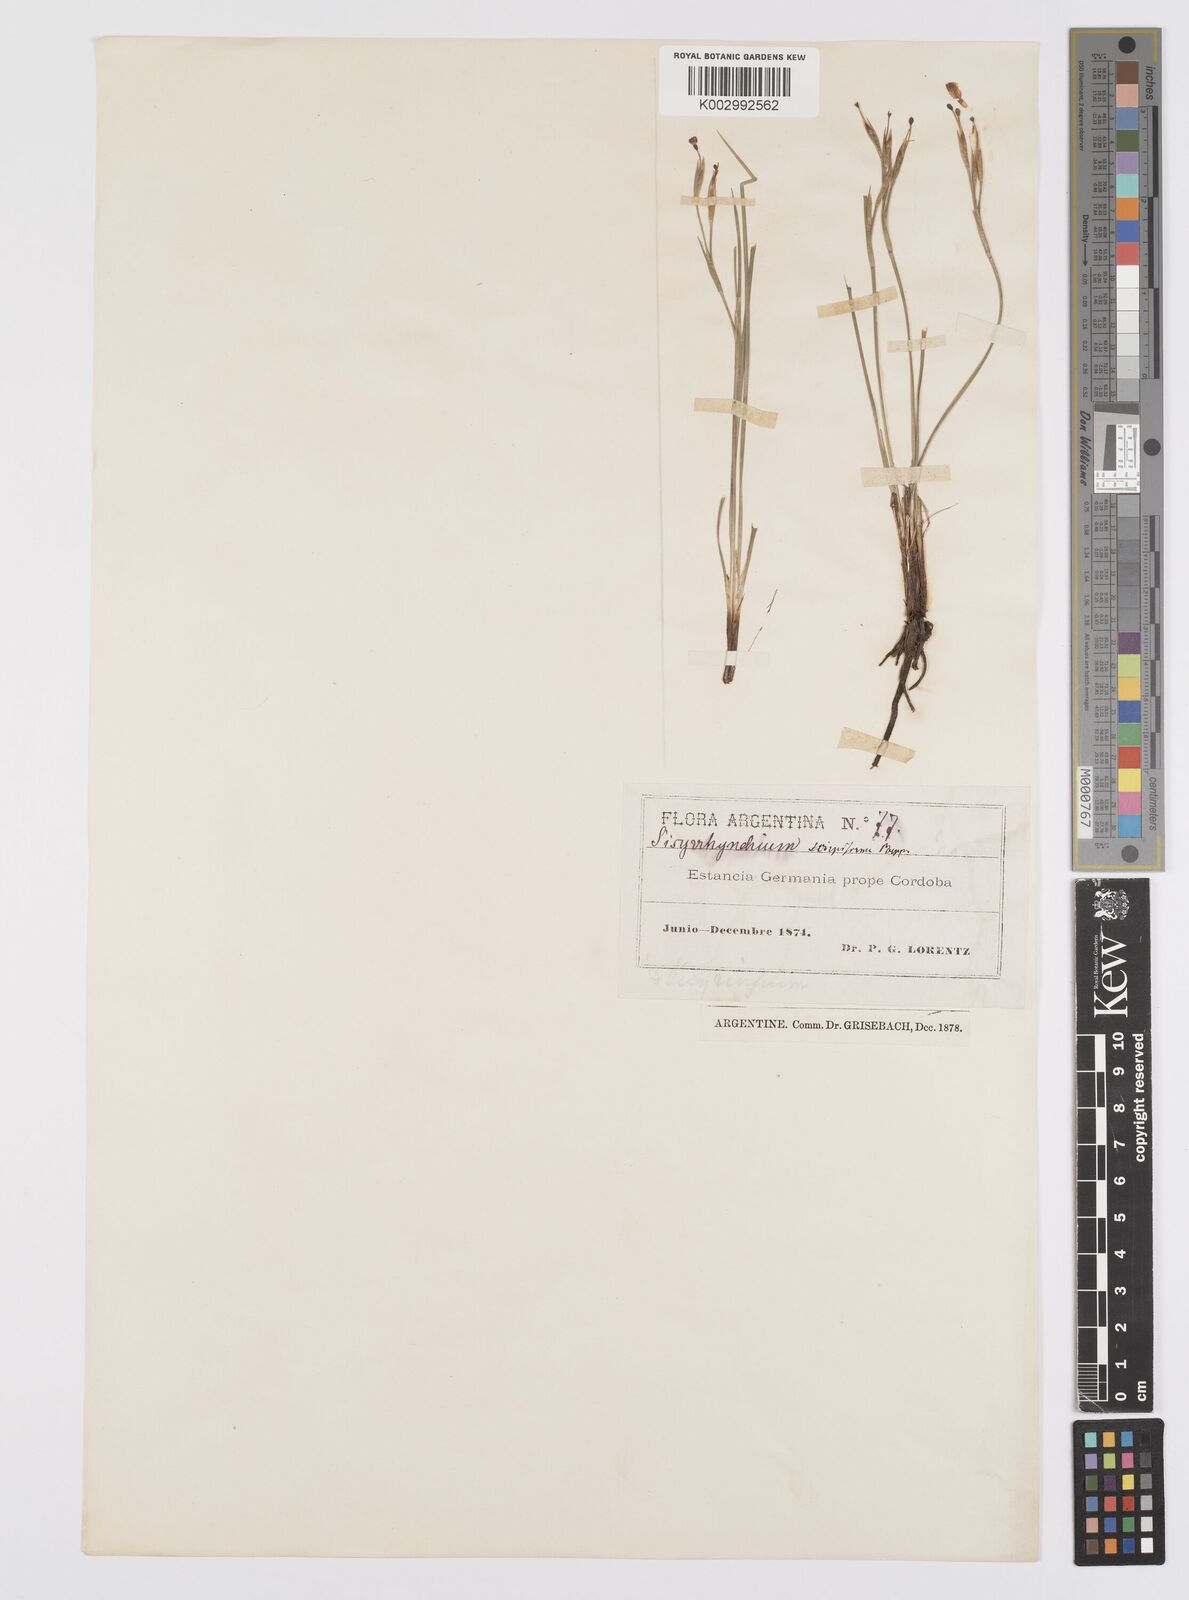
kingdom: Plantae
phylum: Tracheophyta
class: Liliopsida
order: Asparagales
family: Iridaceae
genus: Sisyrinchium
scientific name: Sisyrinchium unguiculatum
